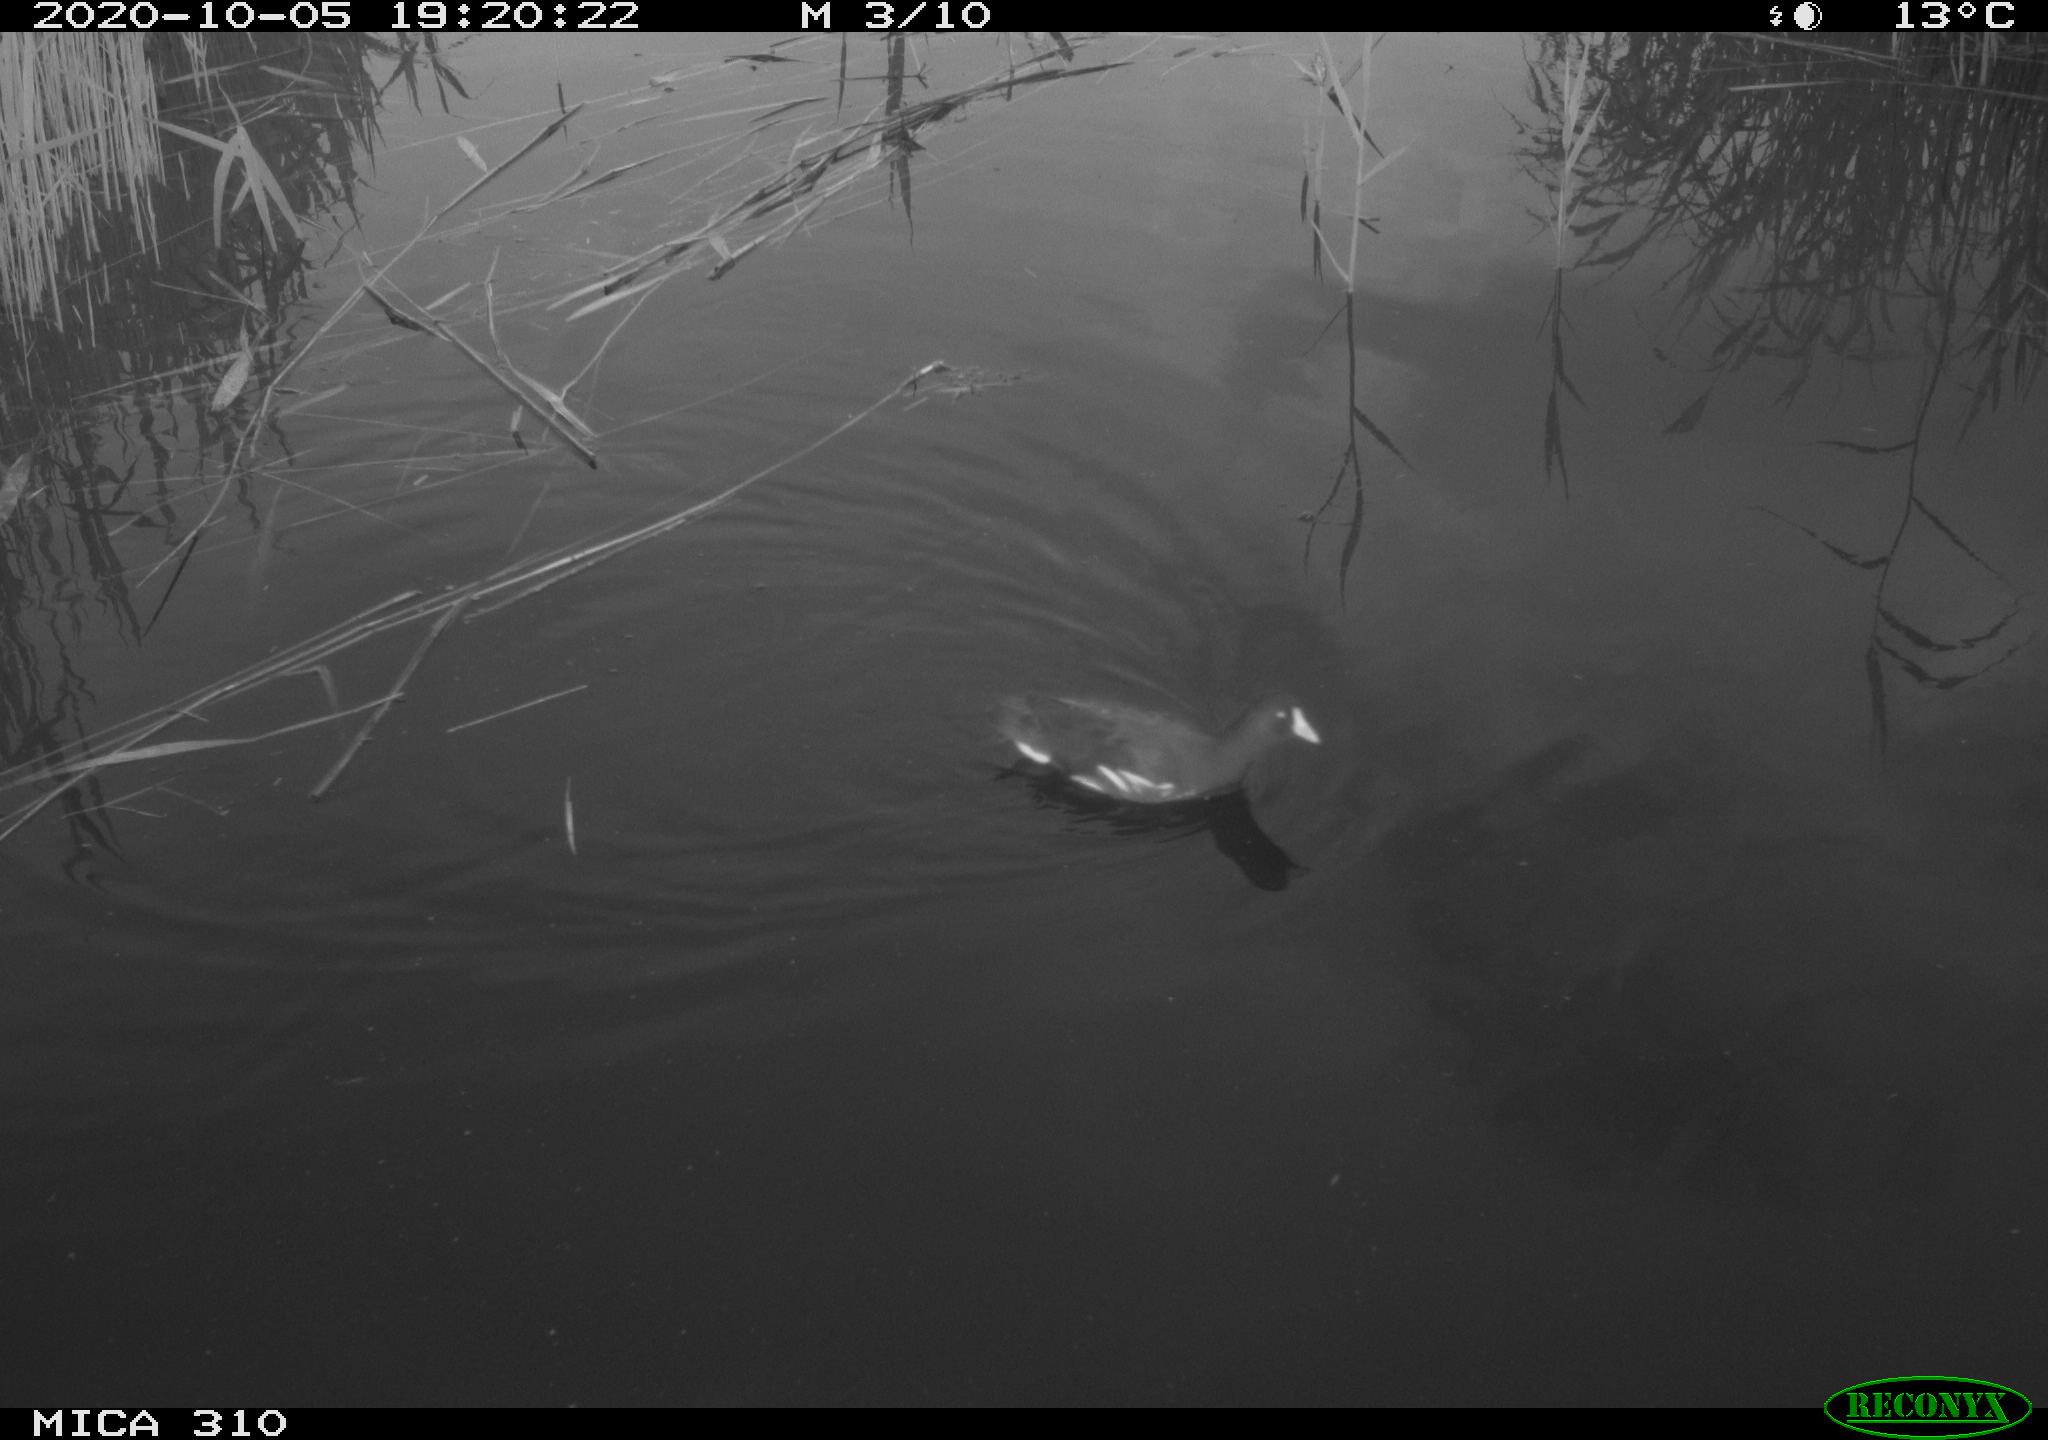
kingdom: Animalia
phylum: Chordata
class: Aves
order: Gruiformes
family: Rallidae
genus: Gallinula
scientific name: Gallinula chloropus
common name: Common moorhen
